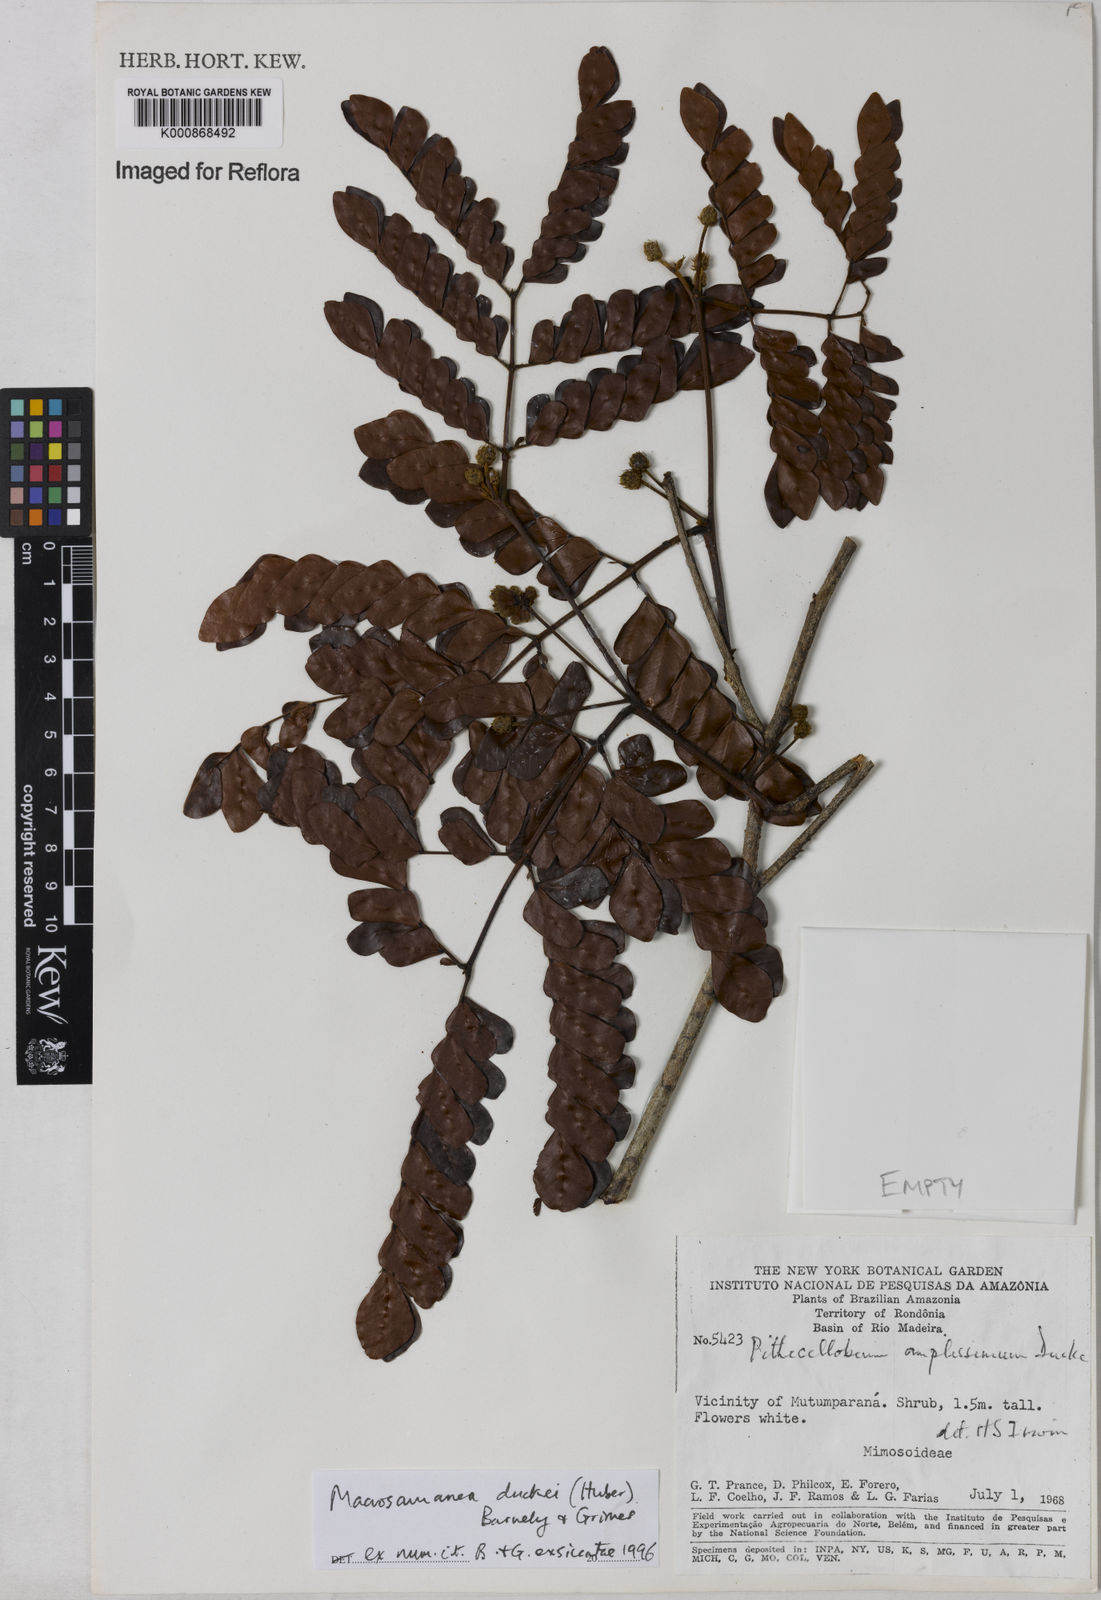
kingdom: Plantae
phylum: Tracheophyta
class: Magnoliopsida
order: Fabales
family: Fabaceae
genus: Macrosamanea
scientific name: Macrosamanea duckei
